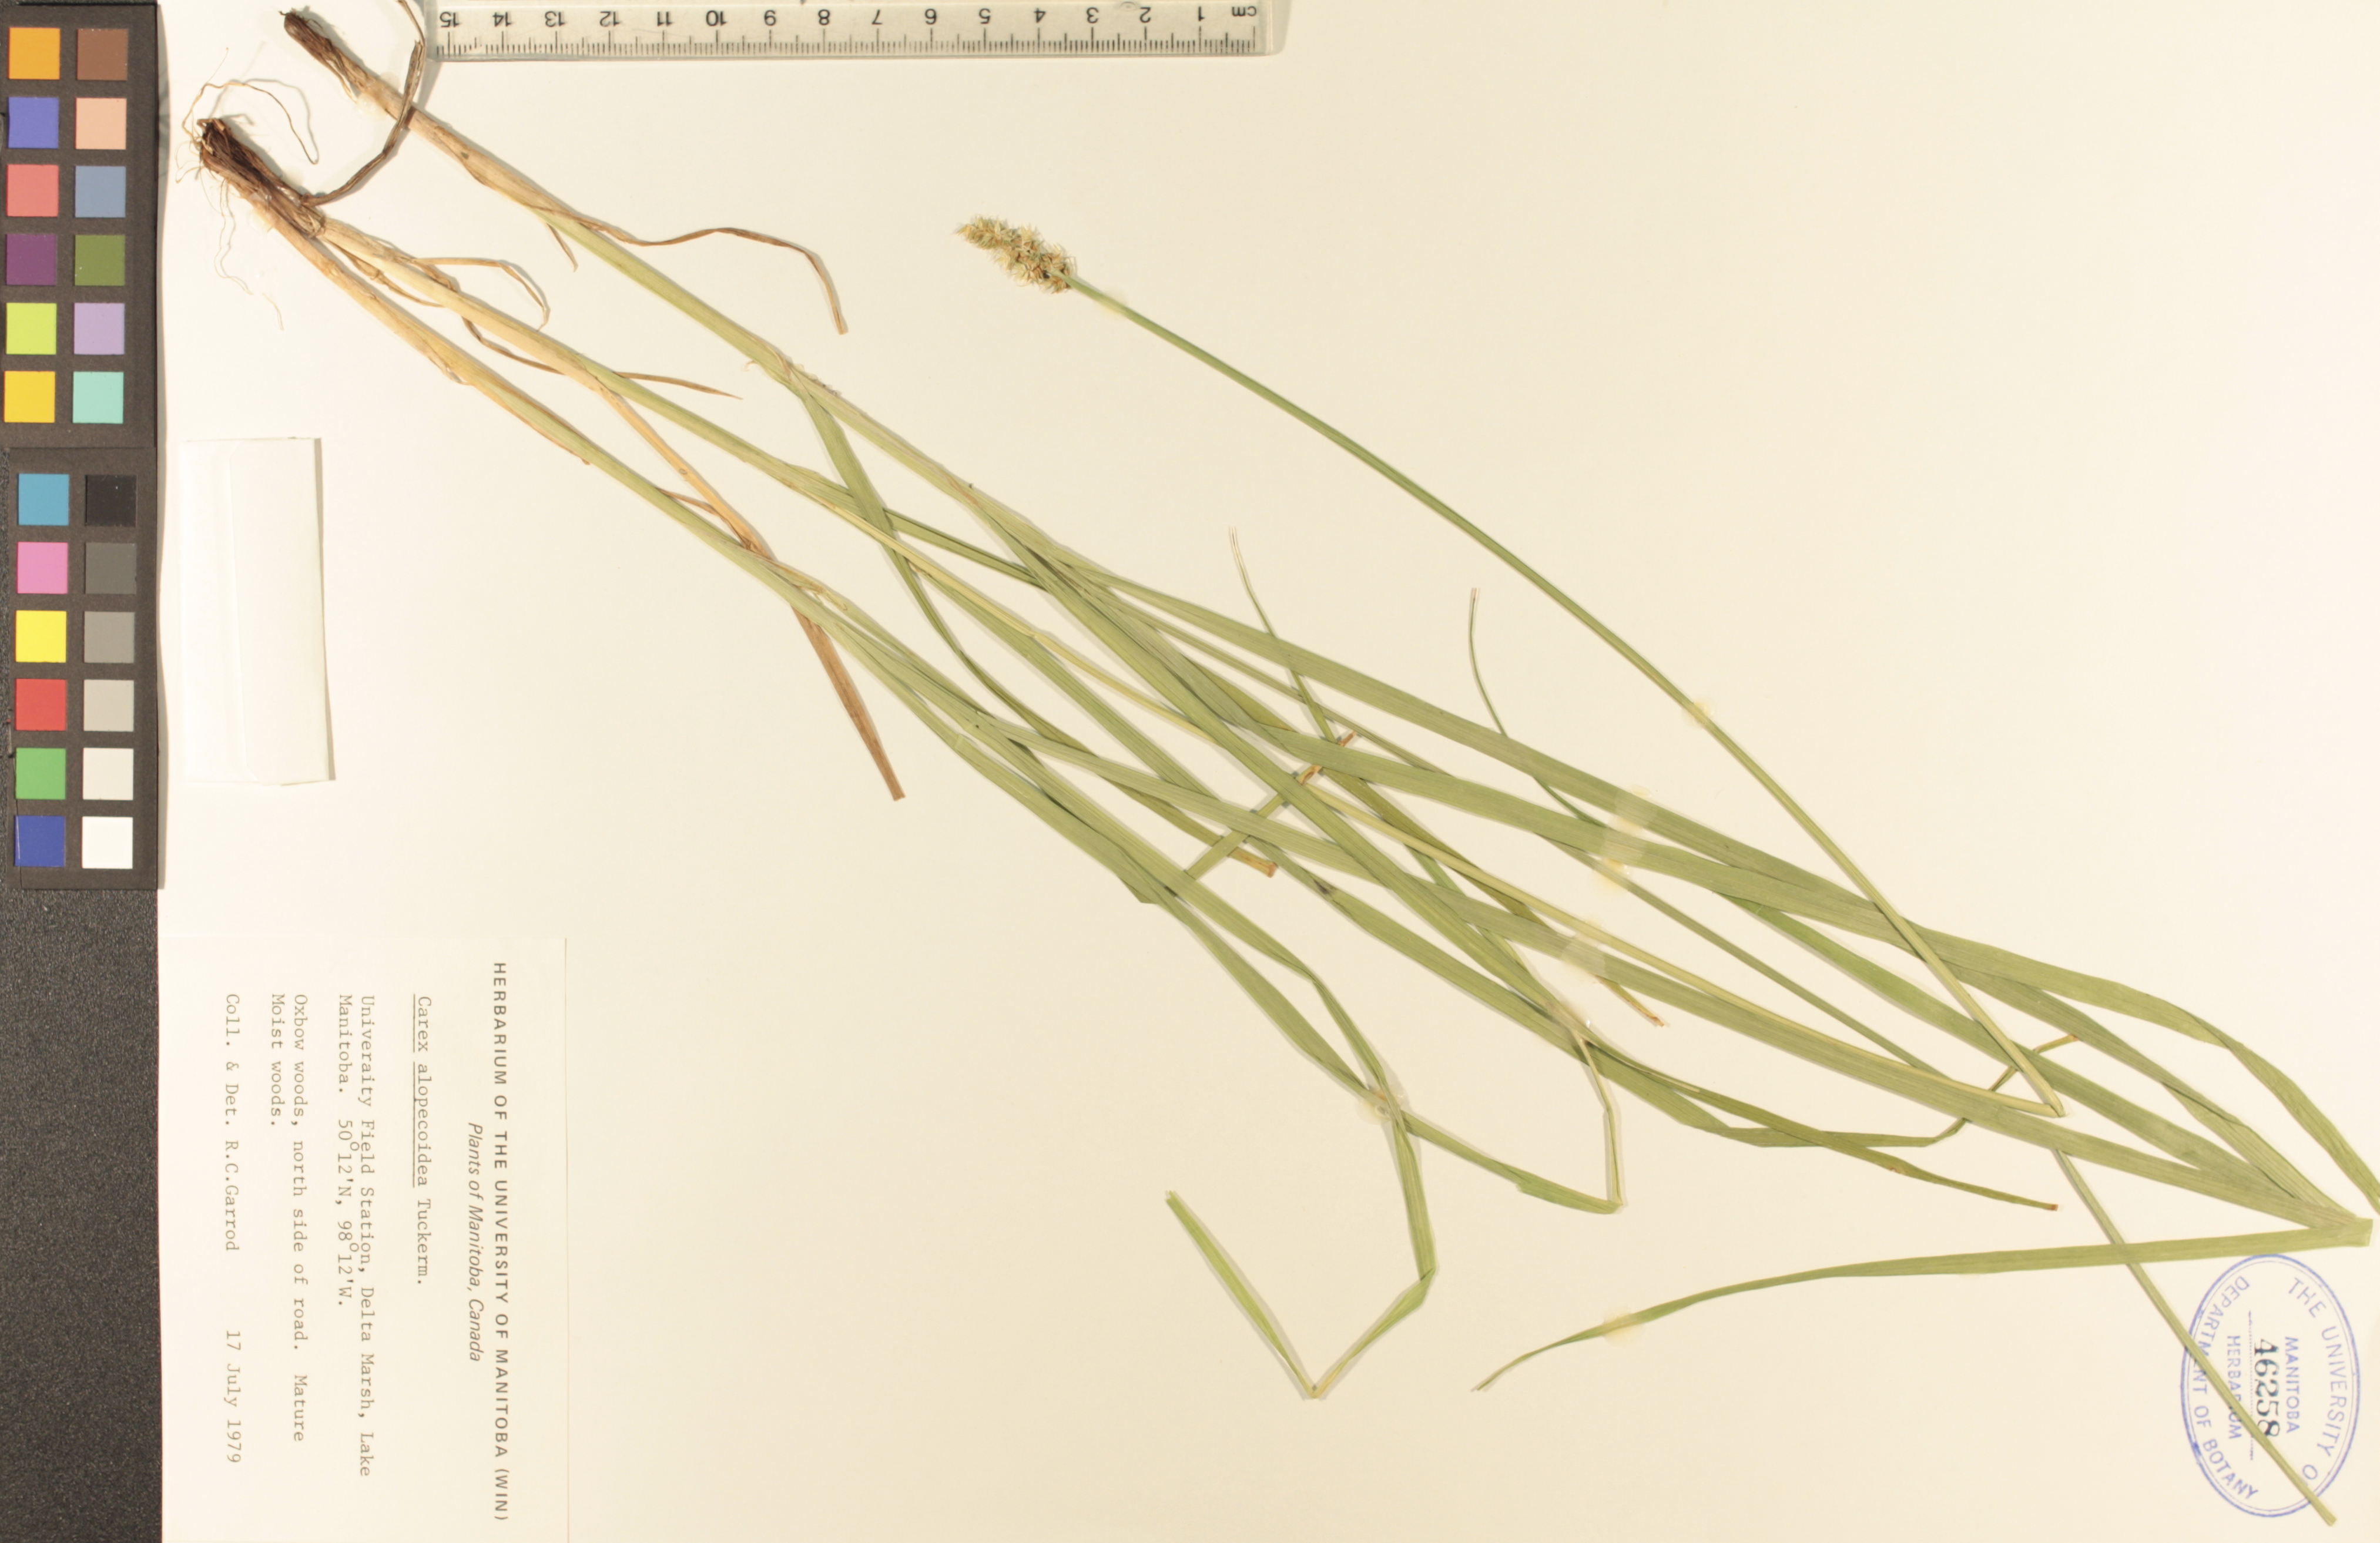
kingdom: Plantae
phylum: Tracheophyta
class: Liliopsida
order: Poales
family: Cyperaceae
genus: Carex
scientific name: Carex alopecoidea
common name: Brown-headed fox sedge
